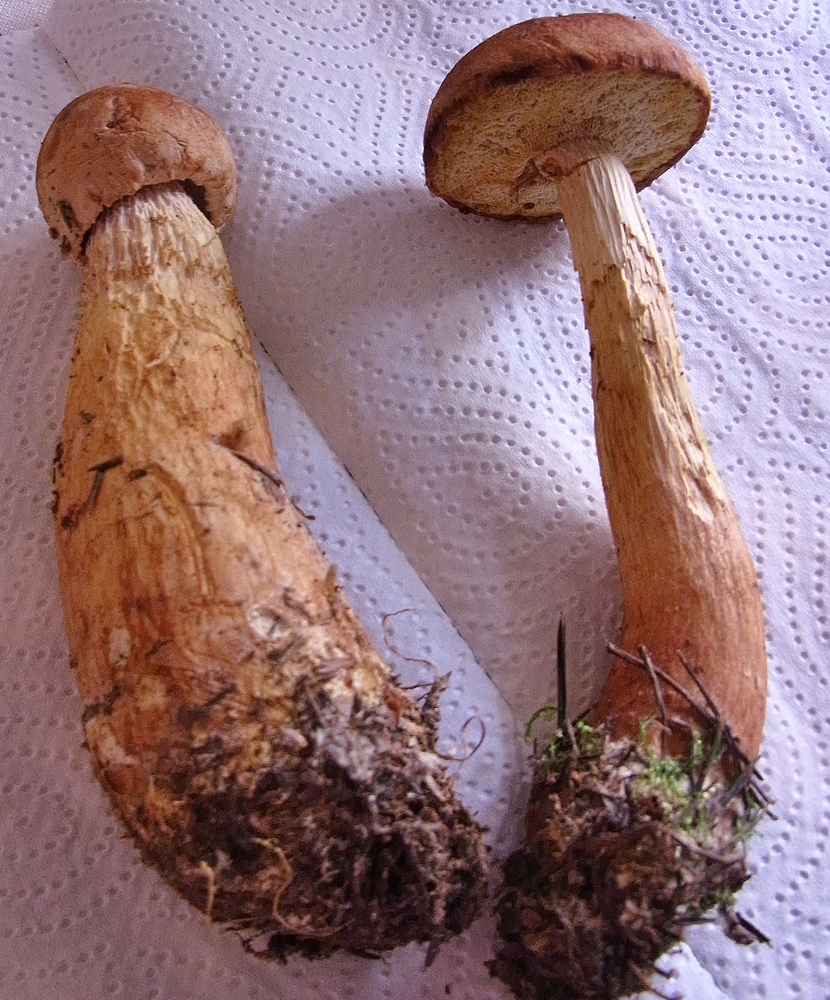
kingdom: Fungi
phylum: Basidiomycota
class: Agaricomycetes
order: Boletales
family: Boletaceae
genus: Aureoboletus
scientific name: Aureoboletus projectellus
